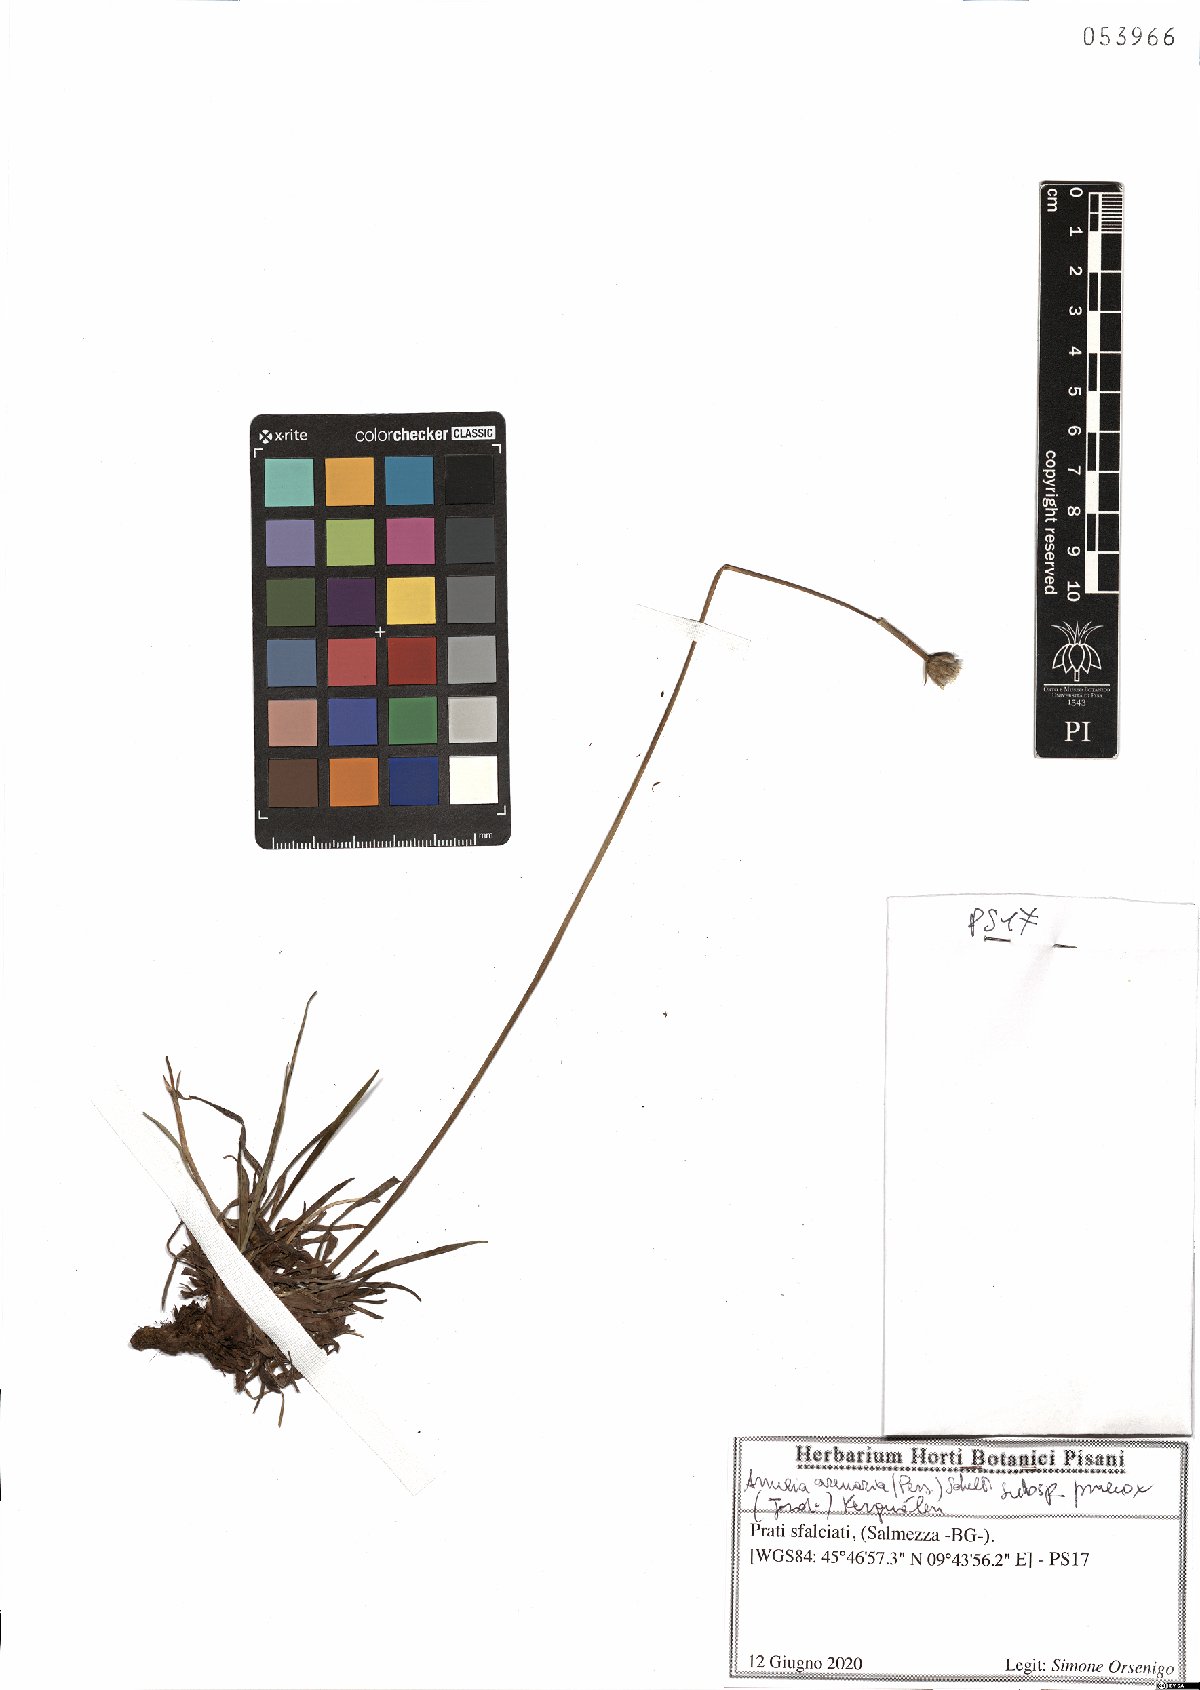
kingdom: Plantae
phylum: Tracheophyta
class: Magnoliopsida
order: Caryophyllales
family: Plumbaginaceae
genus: Armeria
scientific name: Armeria arenaria
